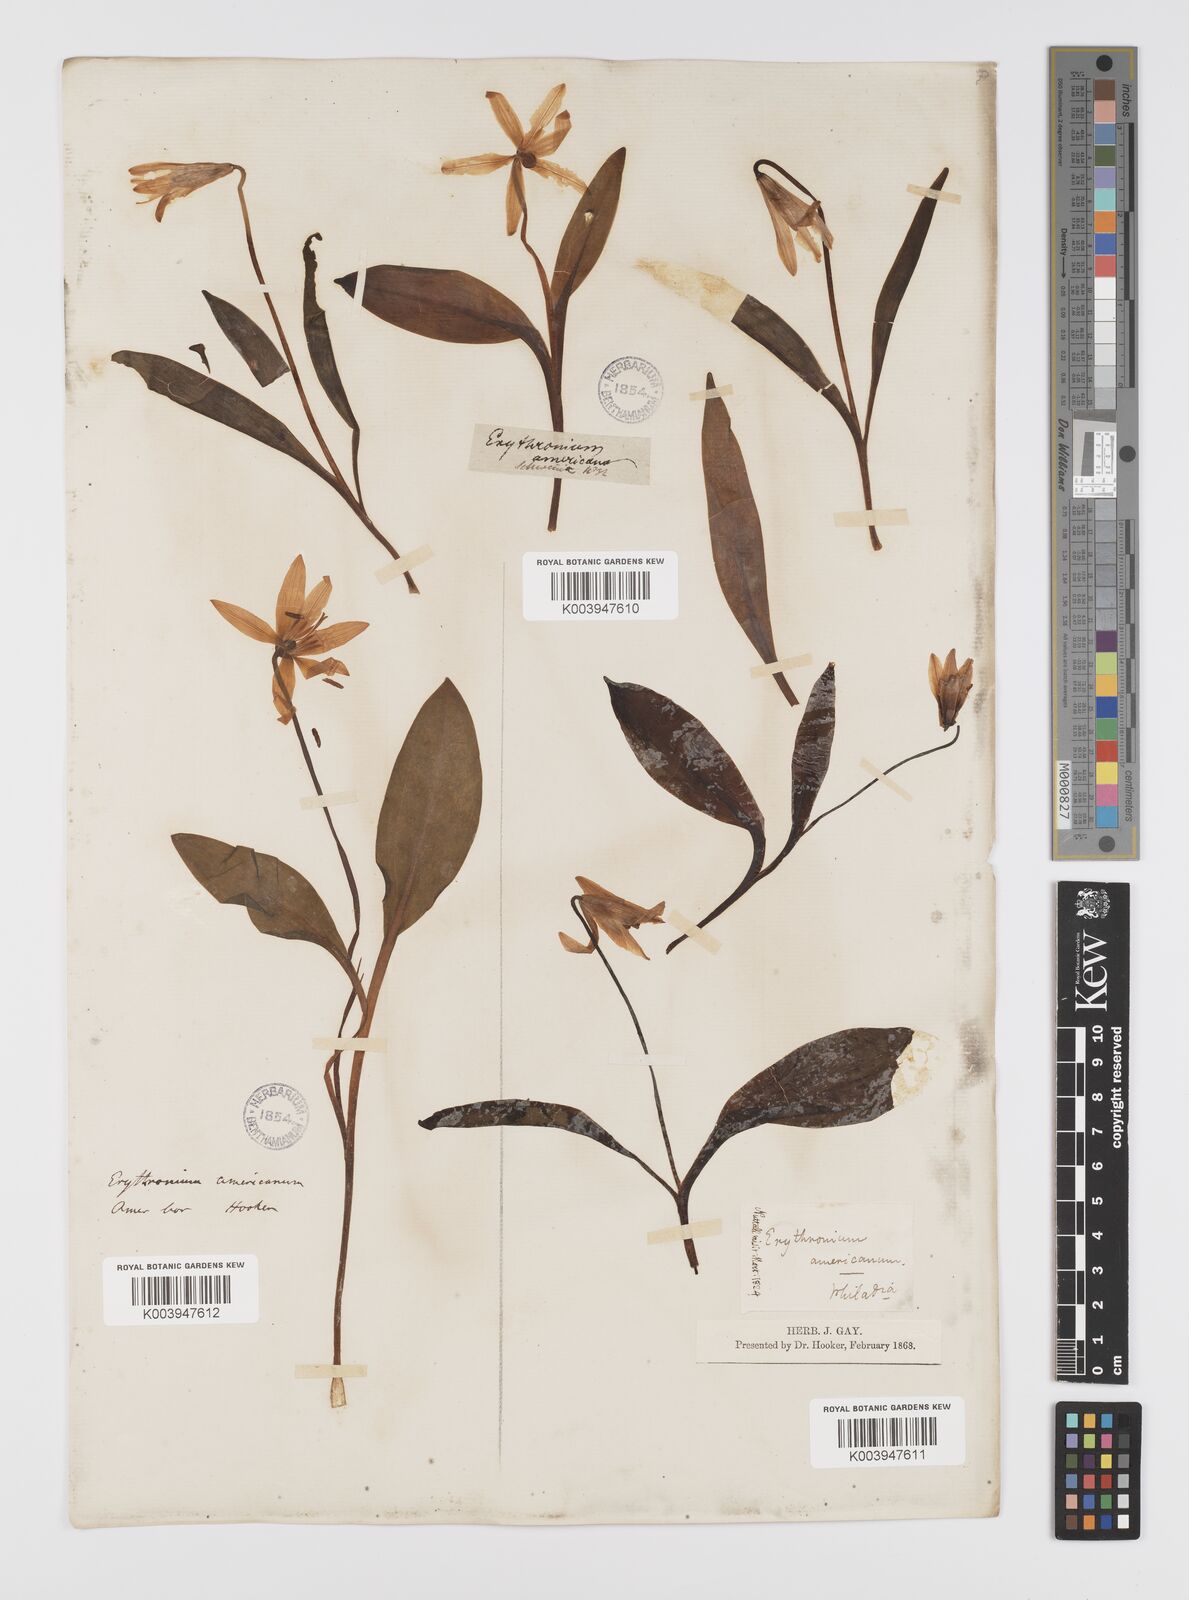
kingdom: Plantae
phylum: Tracheophyta
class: Liliopsida
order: Liliales
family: Liliaceae
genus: Erythronium
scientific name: Erythronium grandiflorum
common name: Avalanche-lily
